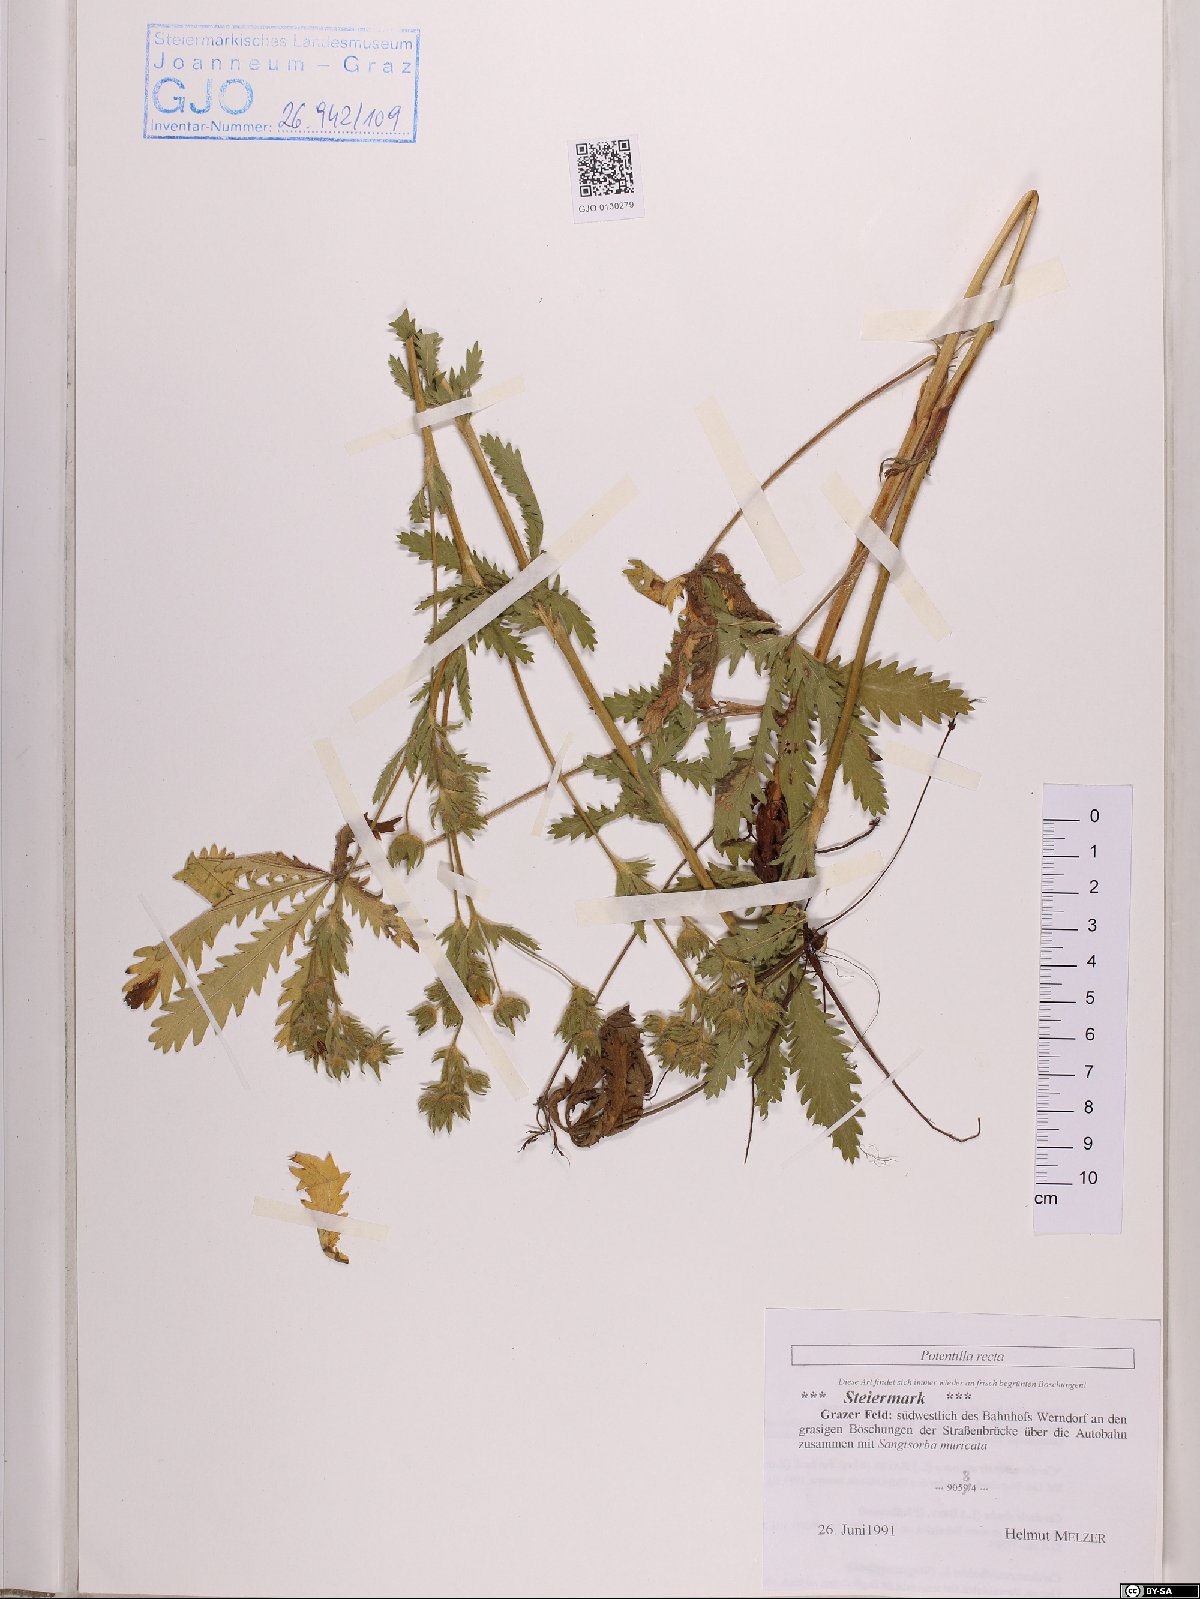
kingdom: Plantae
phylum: Tracheophyta
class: Magnoliopsida
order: Rosales
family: Rosaceae
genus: Potentilla
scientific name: Potentilla recta
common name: Sulphur cinquefoil
